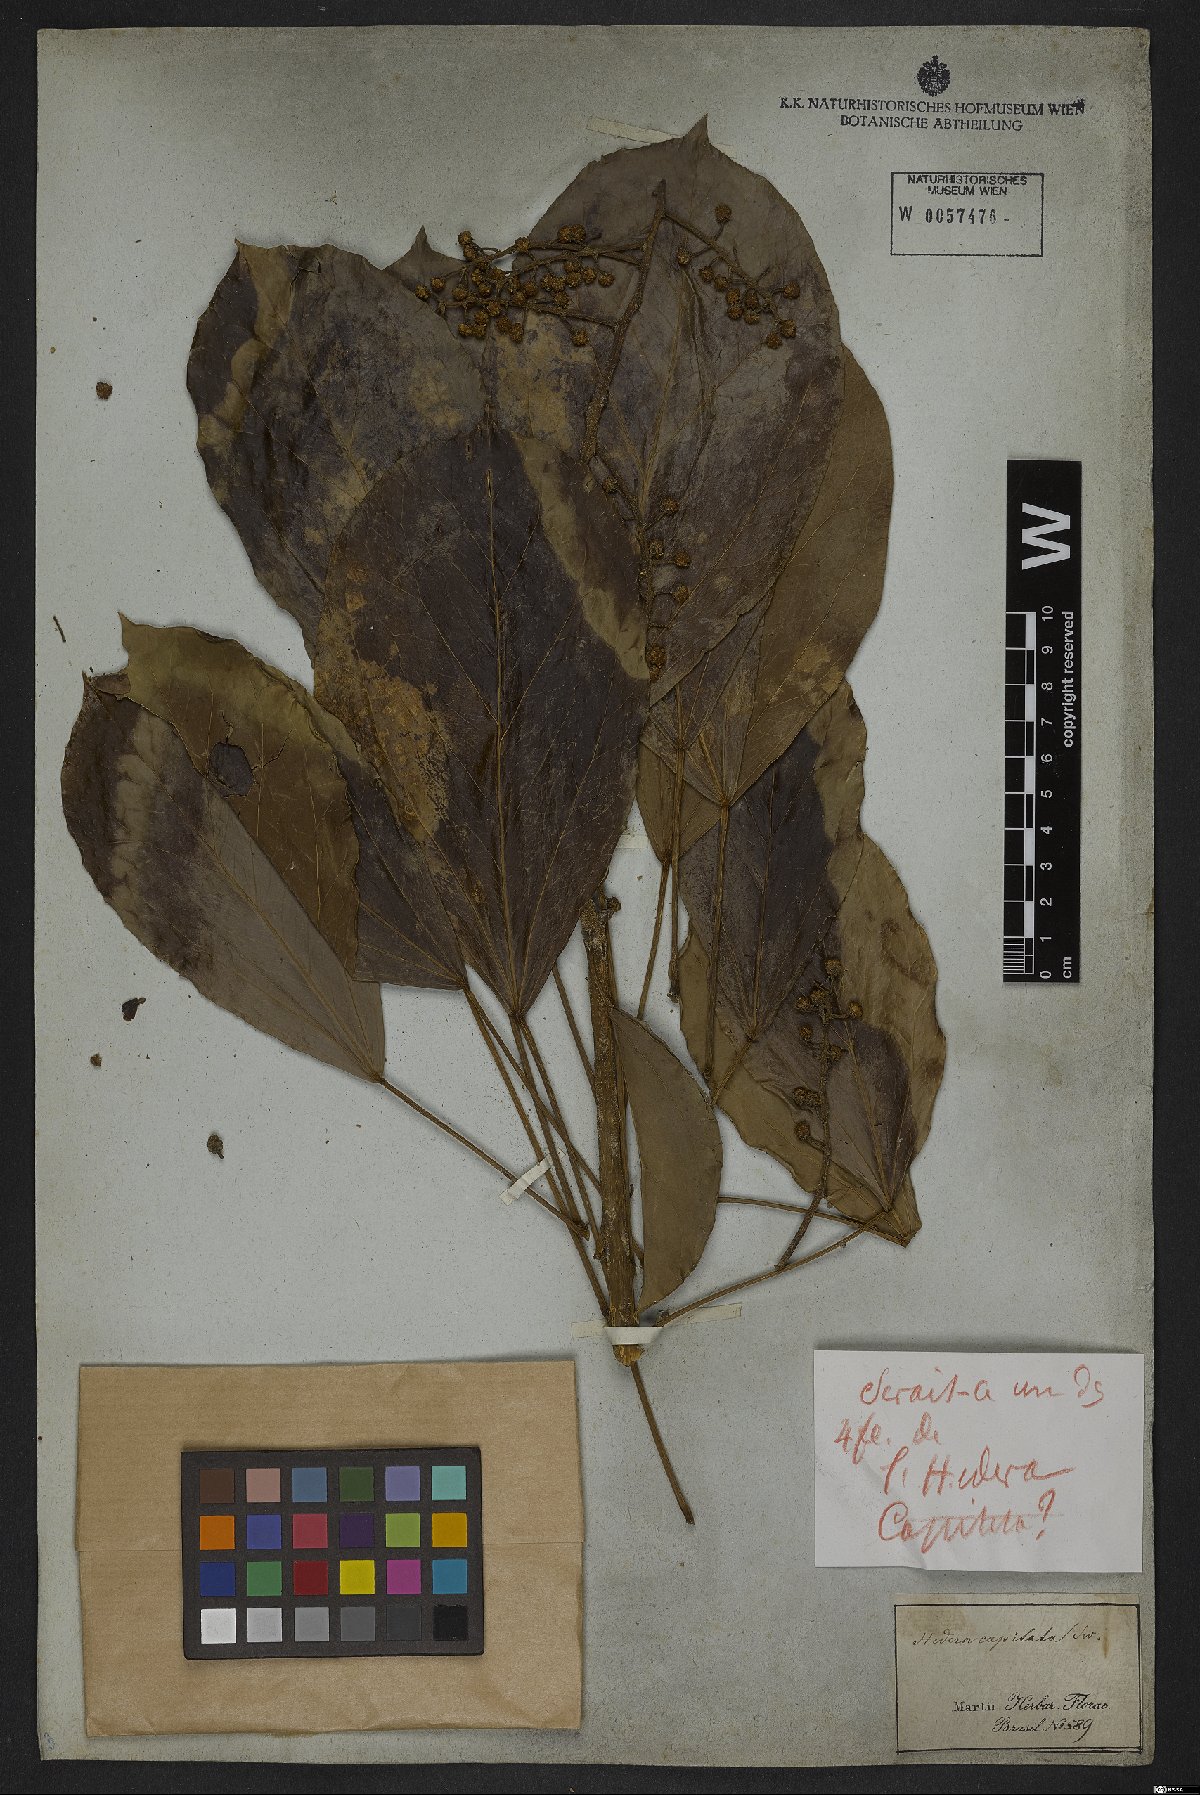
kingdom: Plantae
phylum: Tracheophyta
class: Magnoliopsida
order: Apiales
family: Araliaceae
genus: Oreopanax
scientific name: Oreopanax capitatus
